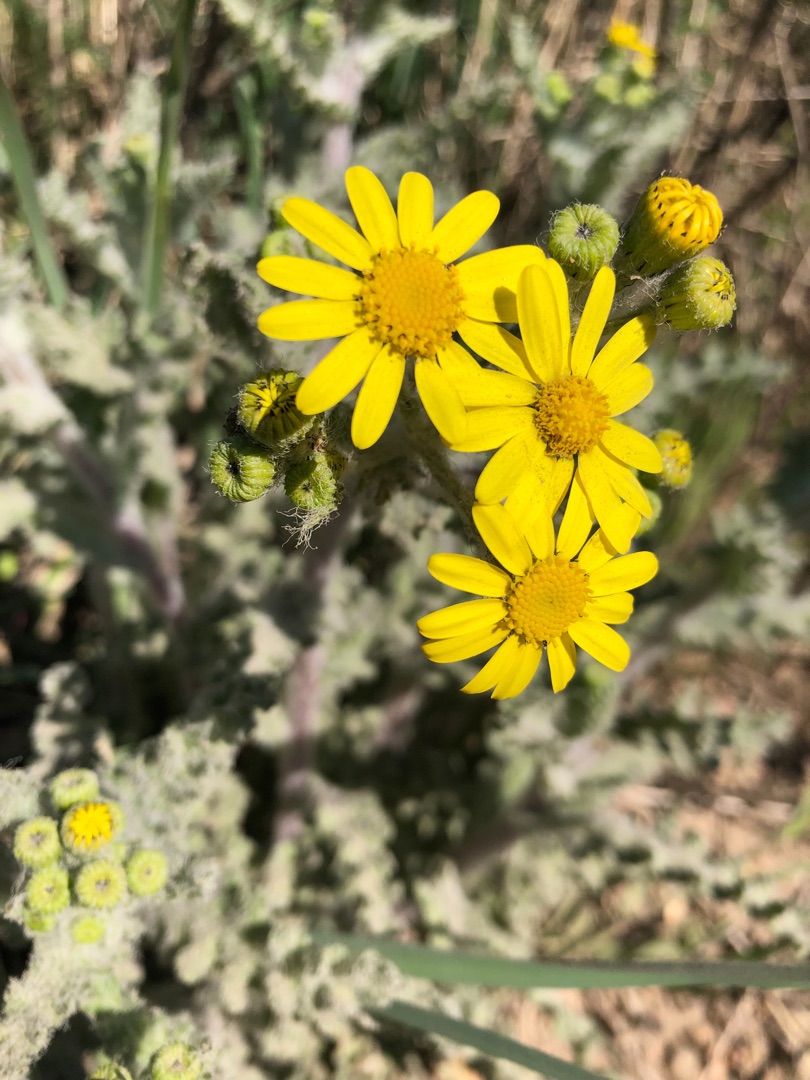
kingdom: Plantae
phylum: Tracheophyta
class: Magnoliopsida
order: Asterales
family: Asteraceae
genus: Senecio
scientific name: Senecio leucanthemifolius
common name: Vår-brandbæger
